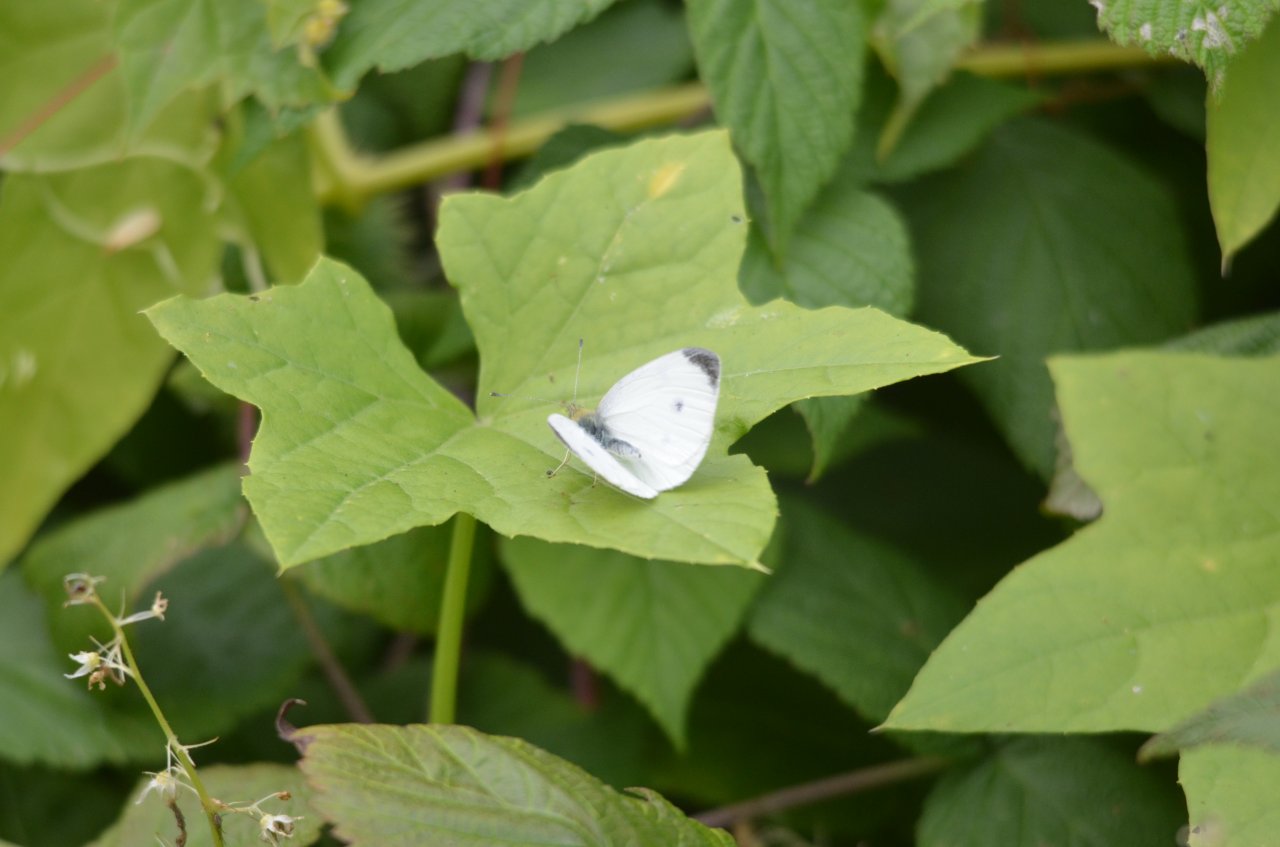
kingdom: Animalia
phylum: Arthropoda
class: Insecta
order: Lepidoptera
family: Pieridae
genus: Pieris
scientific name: Pieris rapae
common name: Cabbage White
